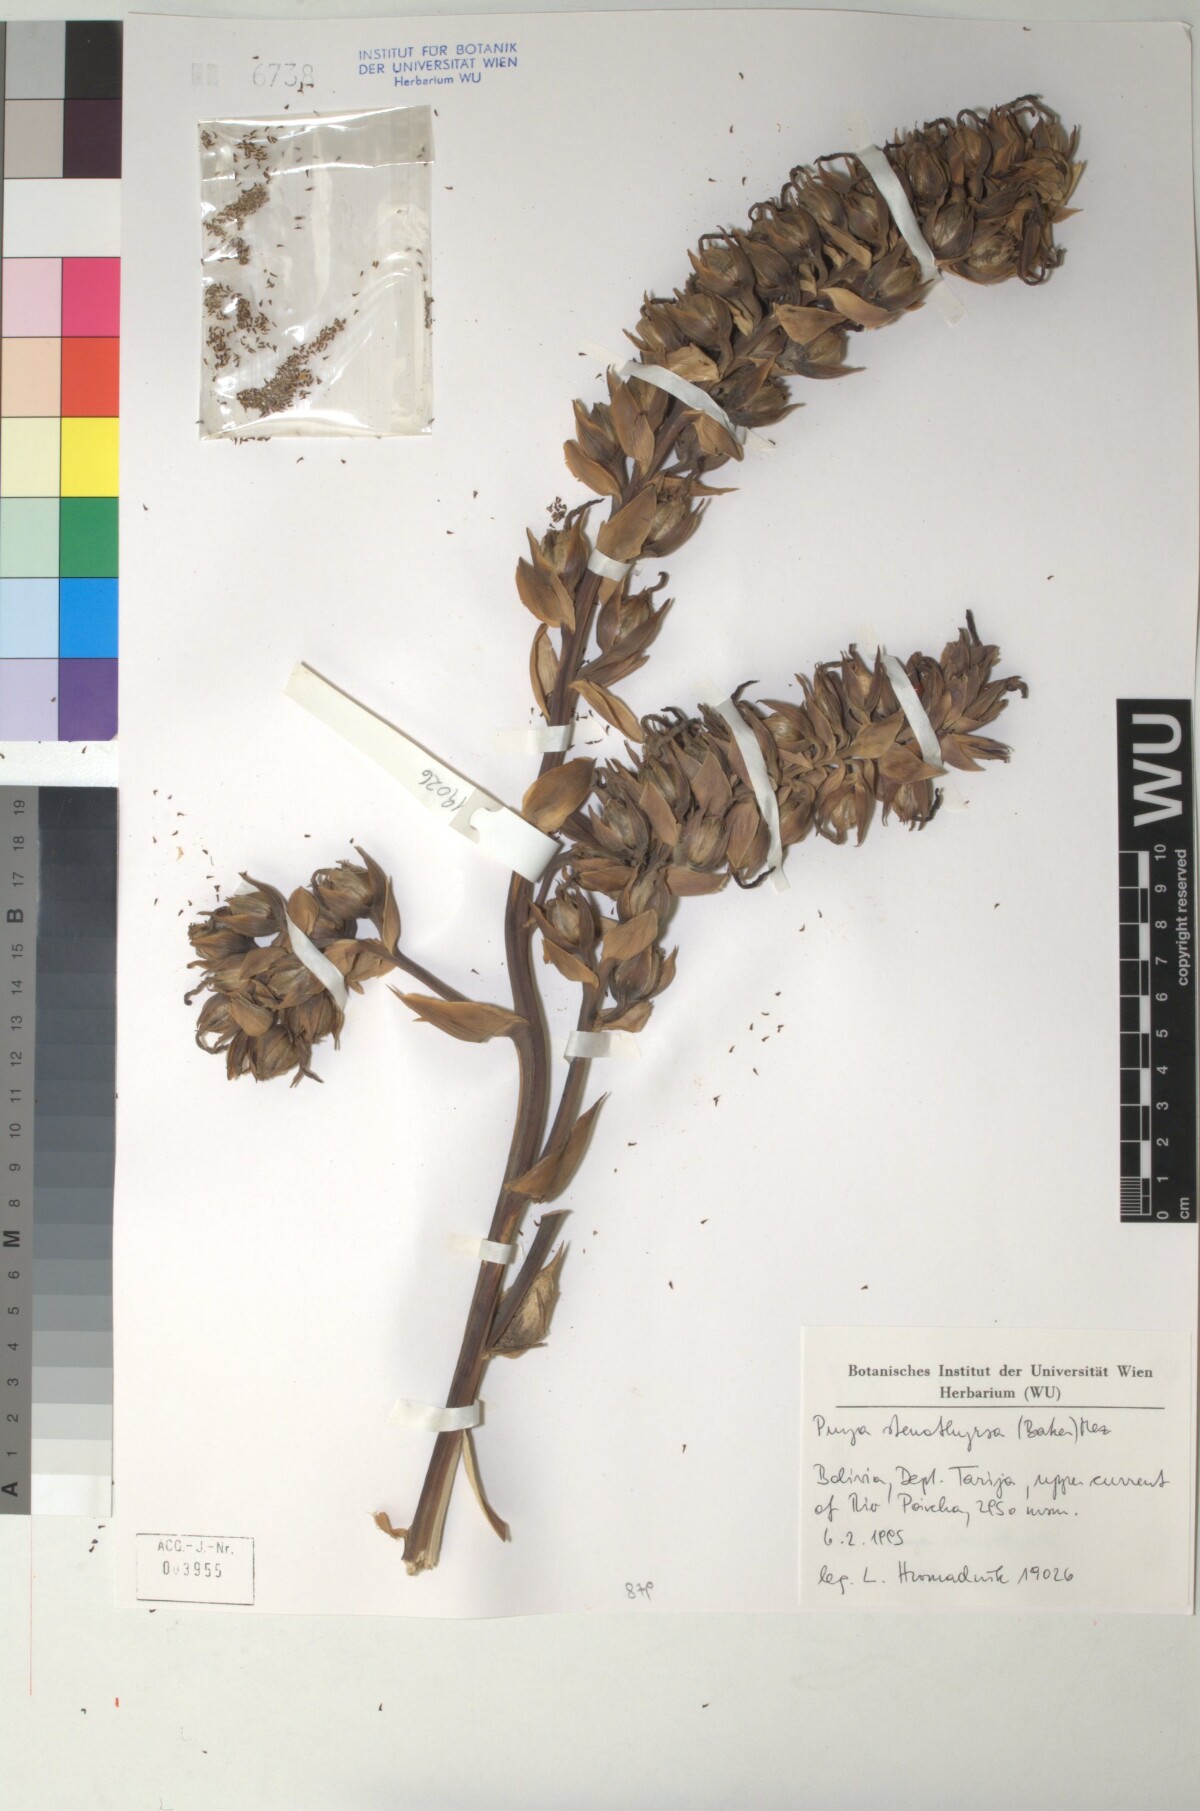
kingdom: Plantae
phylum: Tracheophyta
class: Liliopsida
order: Poales
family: Bromeliaceae
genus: Puya
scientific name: Puya stenothyrsa
